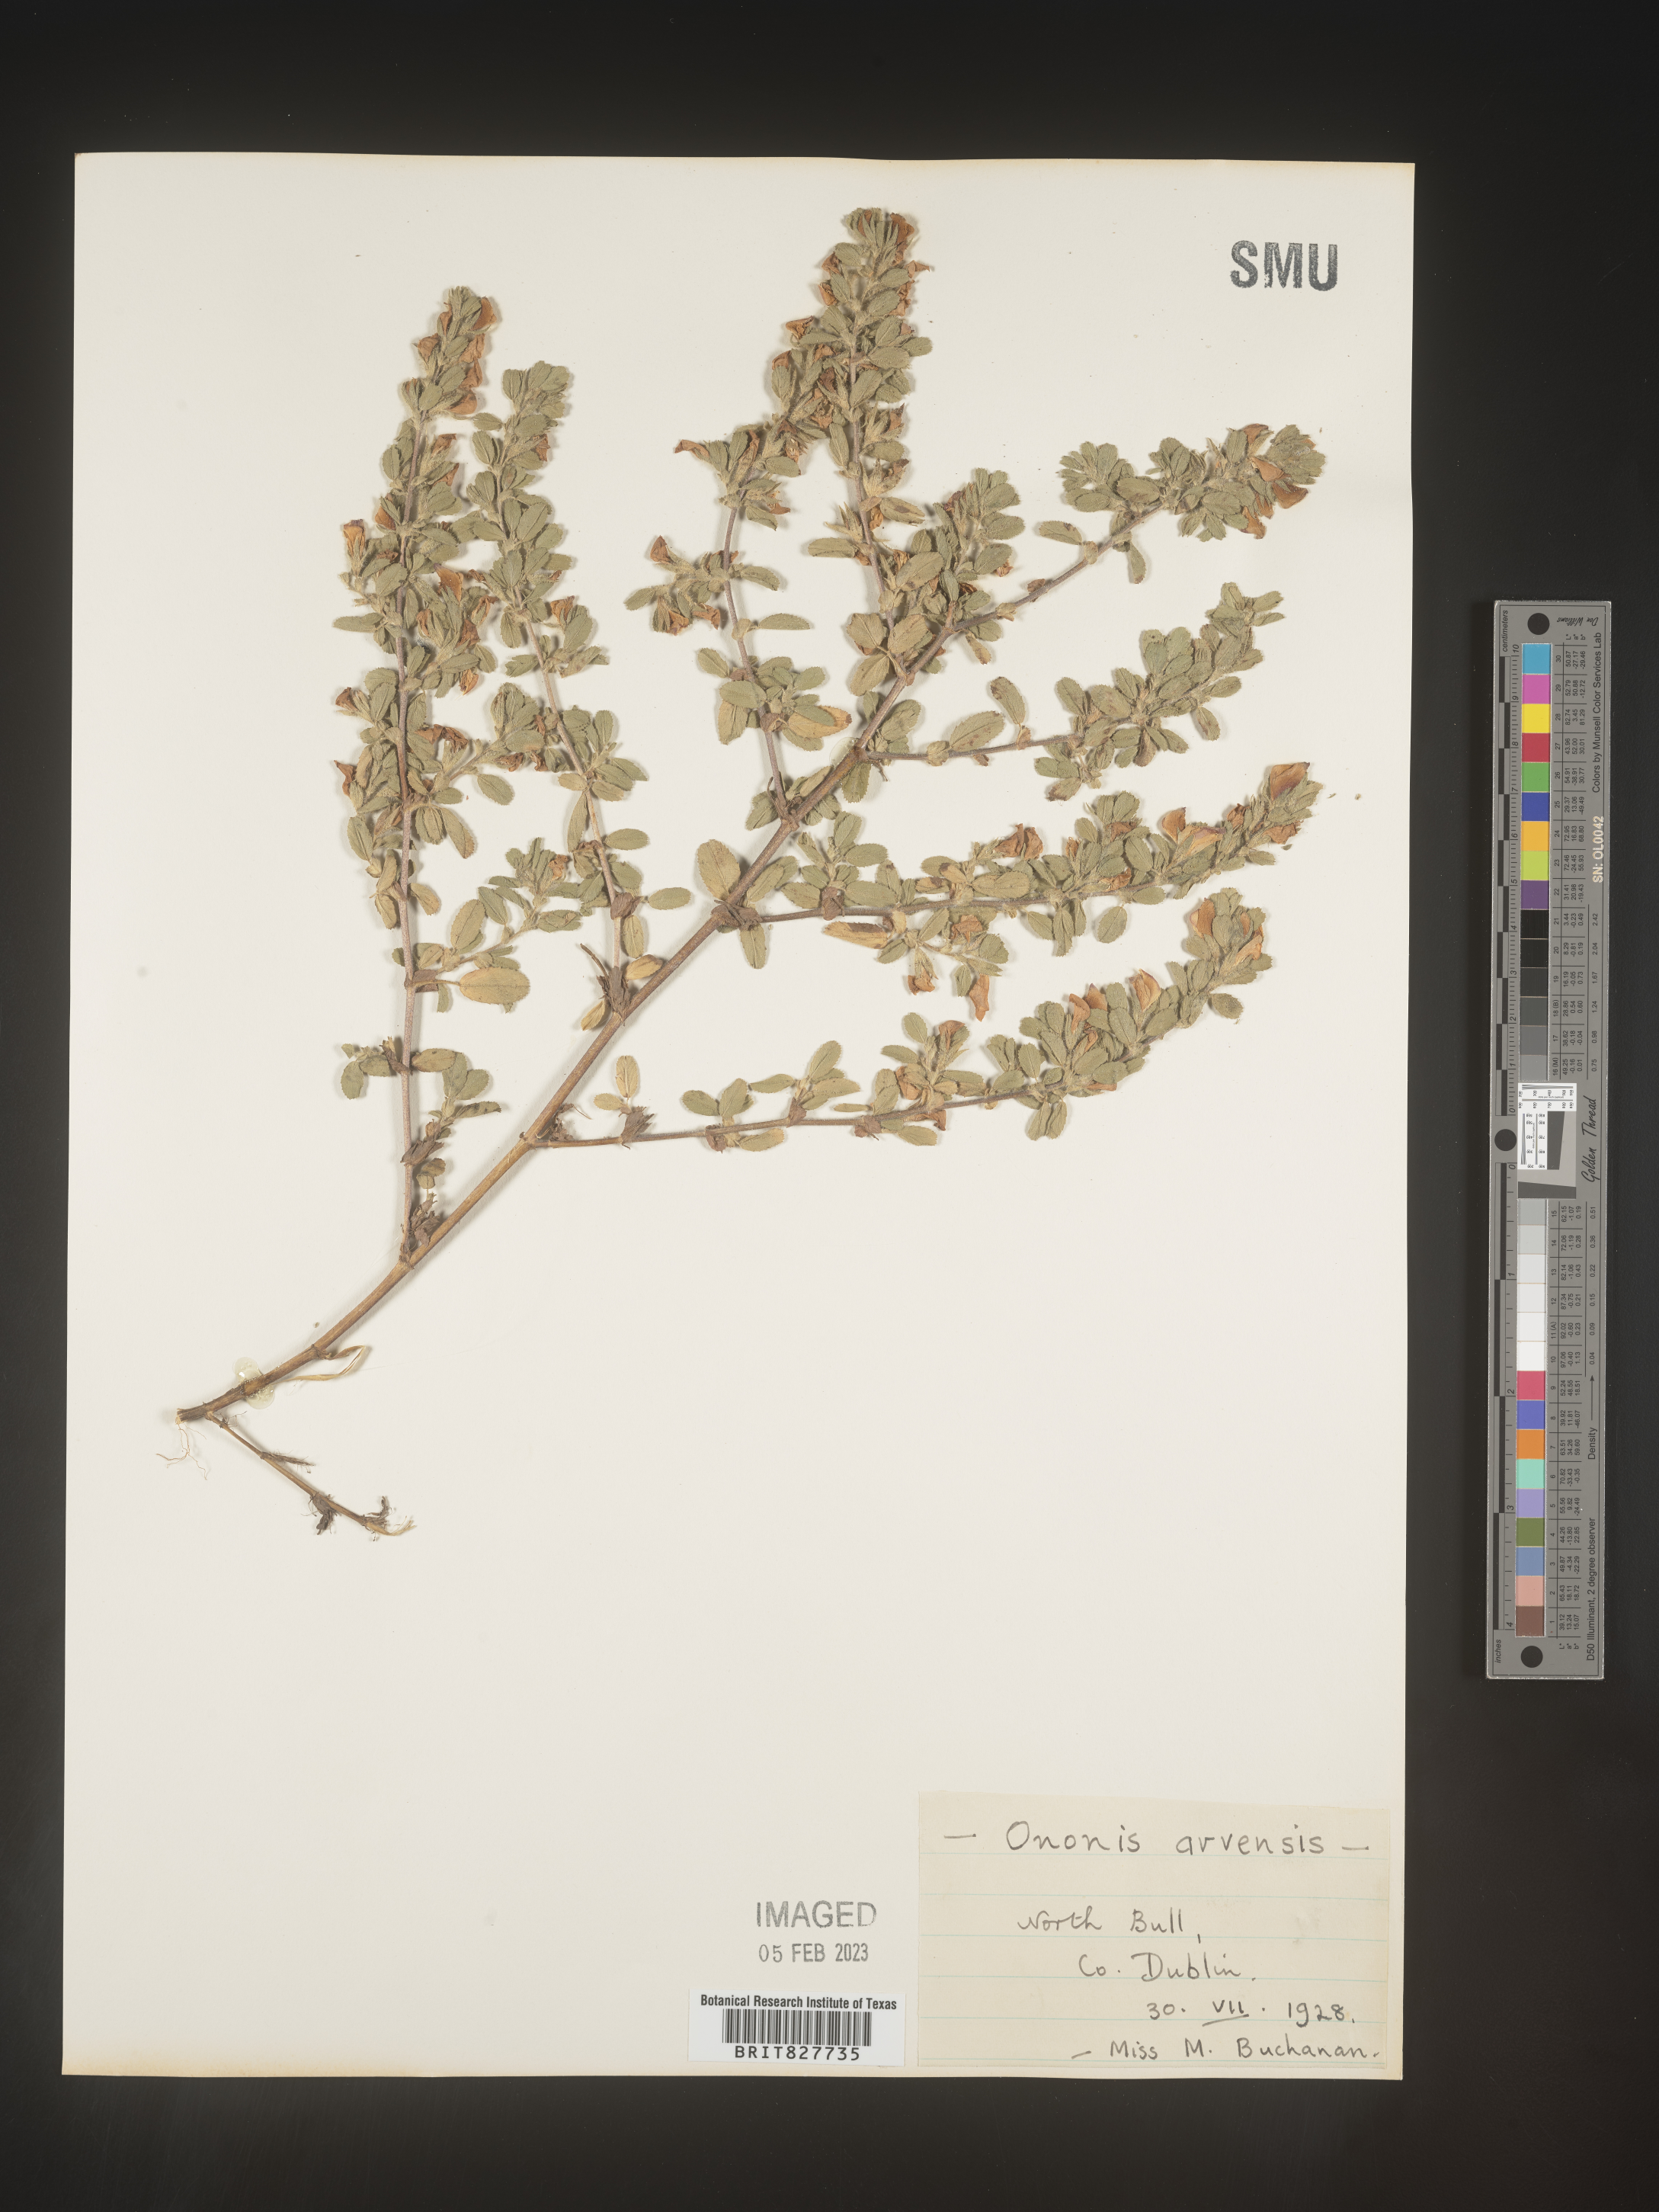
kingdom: Plantae
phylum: Tracheophyta
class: Magnoliopsida
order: Fabales
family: Fabaceae
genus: Ononis
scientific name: Ononis
